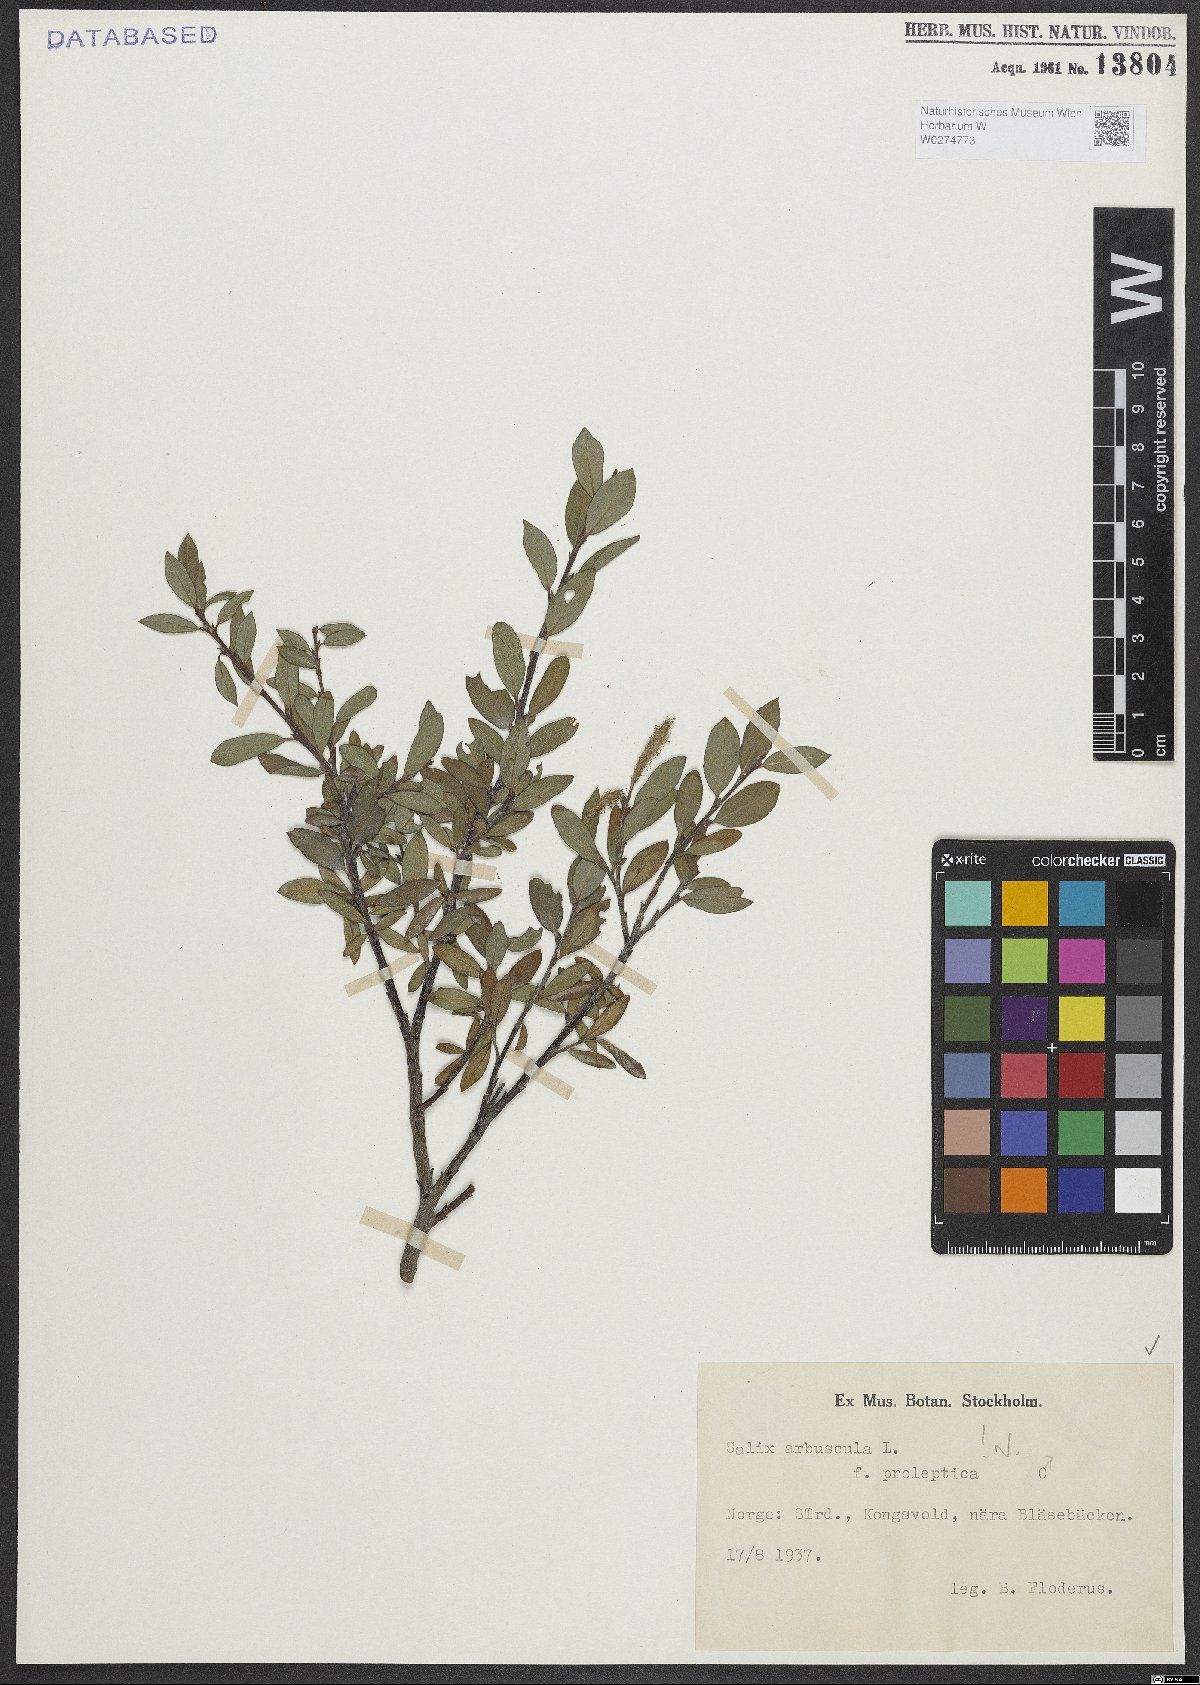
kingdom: Plantae
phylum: Tracheophyta
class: Magnoliopsida
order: Malpighiales
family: Salicaceae
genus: Salix
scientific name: Salix arbuscula
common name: Mountain willow
